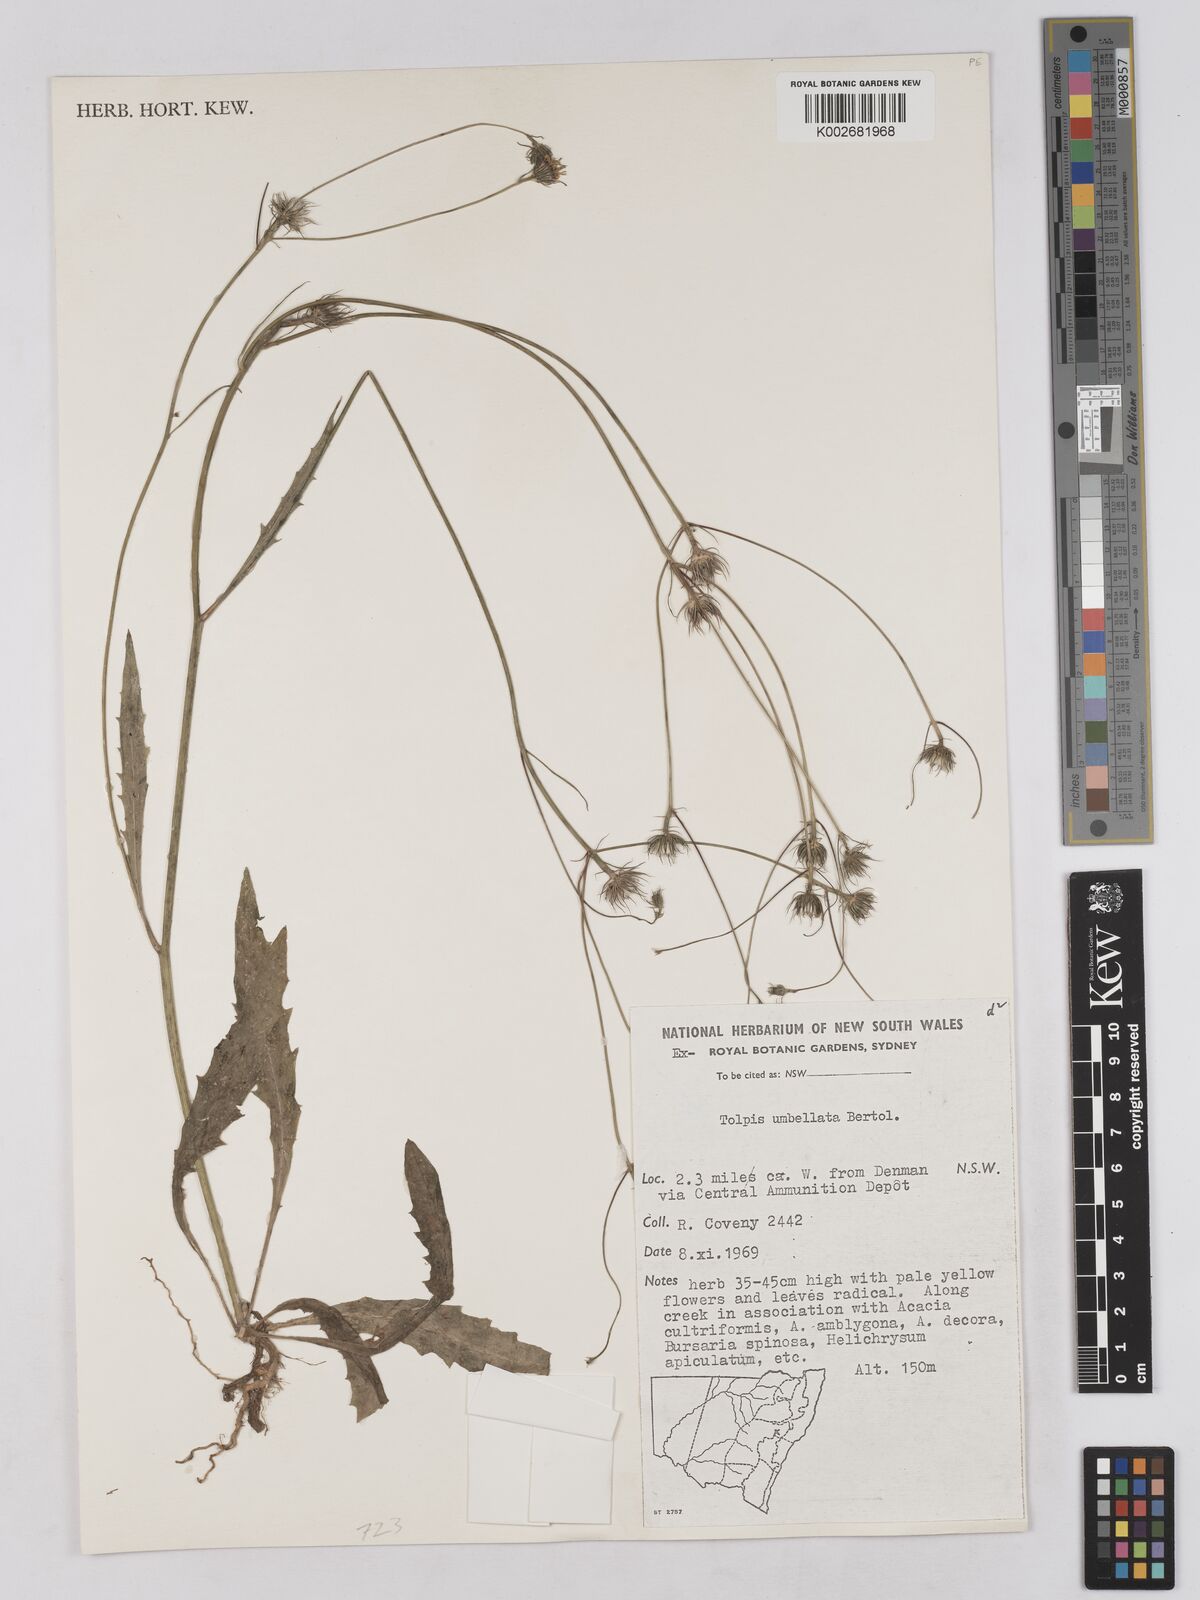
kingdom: Plantae
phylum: Tracheophyta
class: Magnoliopsida
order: Asterales
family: Asteraceae
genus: Tolpis
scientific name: Tolpis umbellata
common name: Yellow hawkweed
